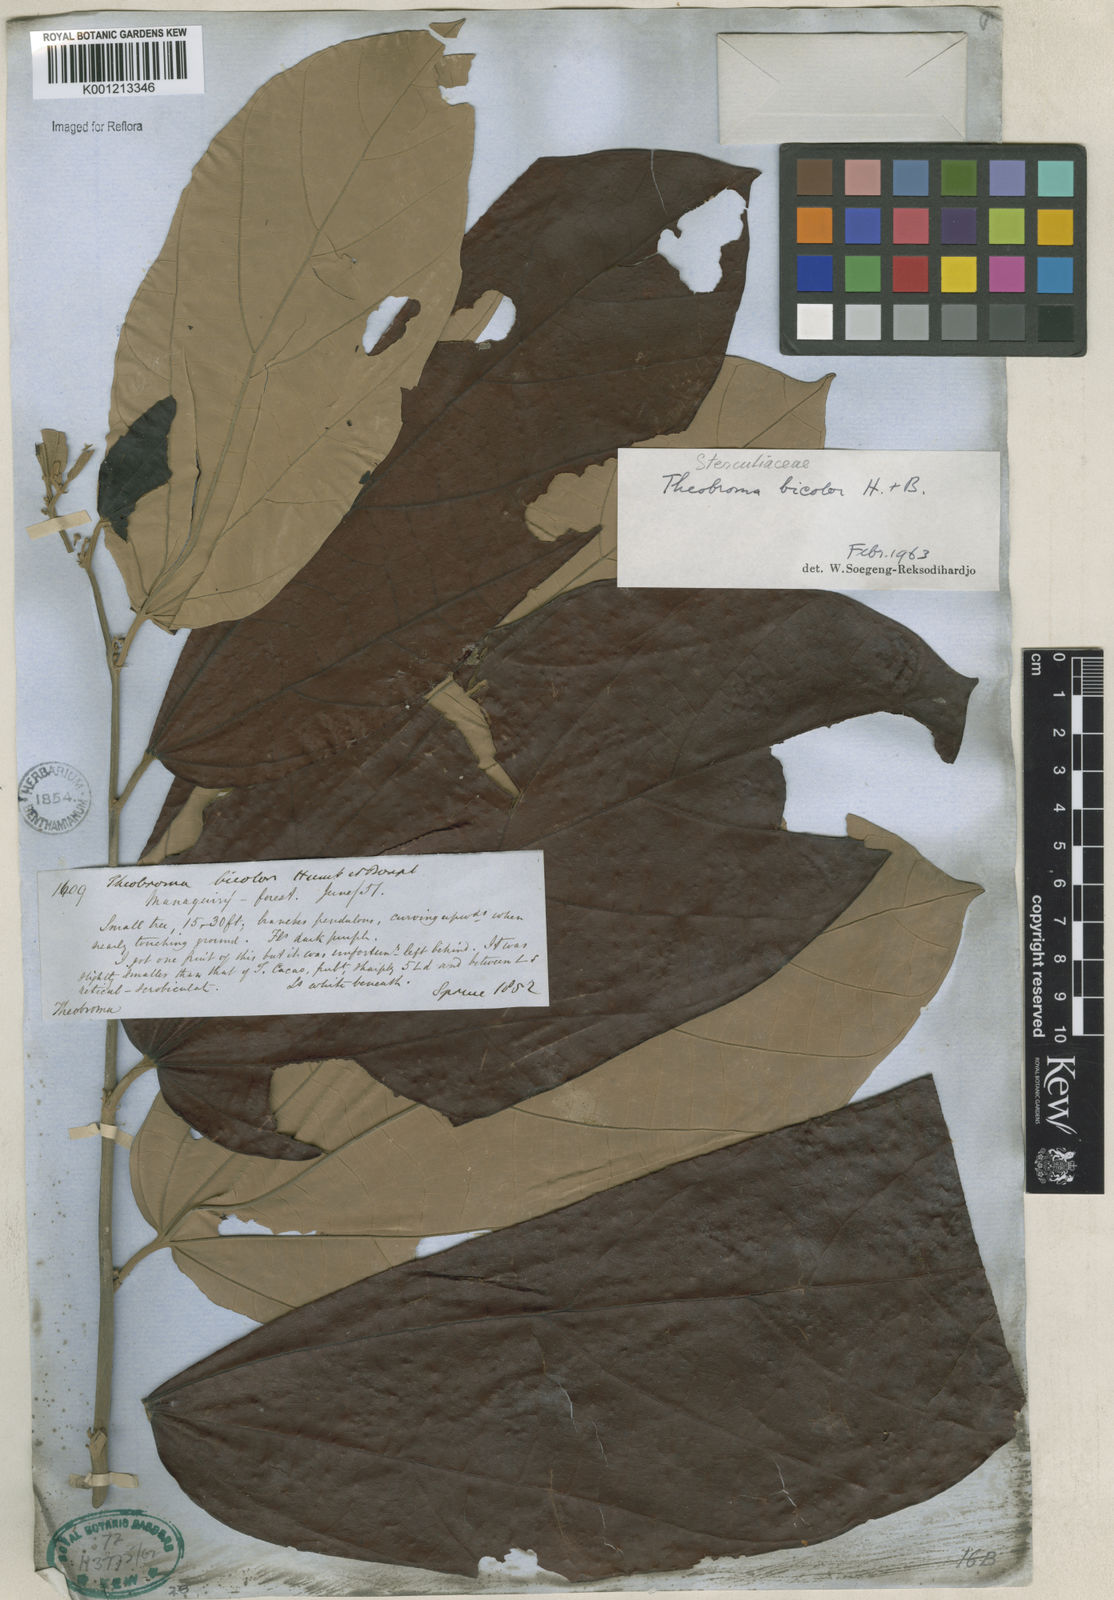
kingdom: Plantae
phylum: Tracheophyta
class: Magnoliopsida
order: Malvales
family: Malvaceae
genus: Theobroma
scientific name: Theobroma
